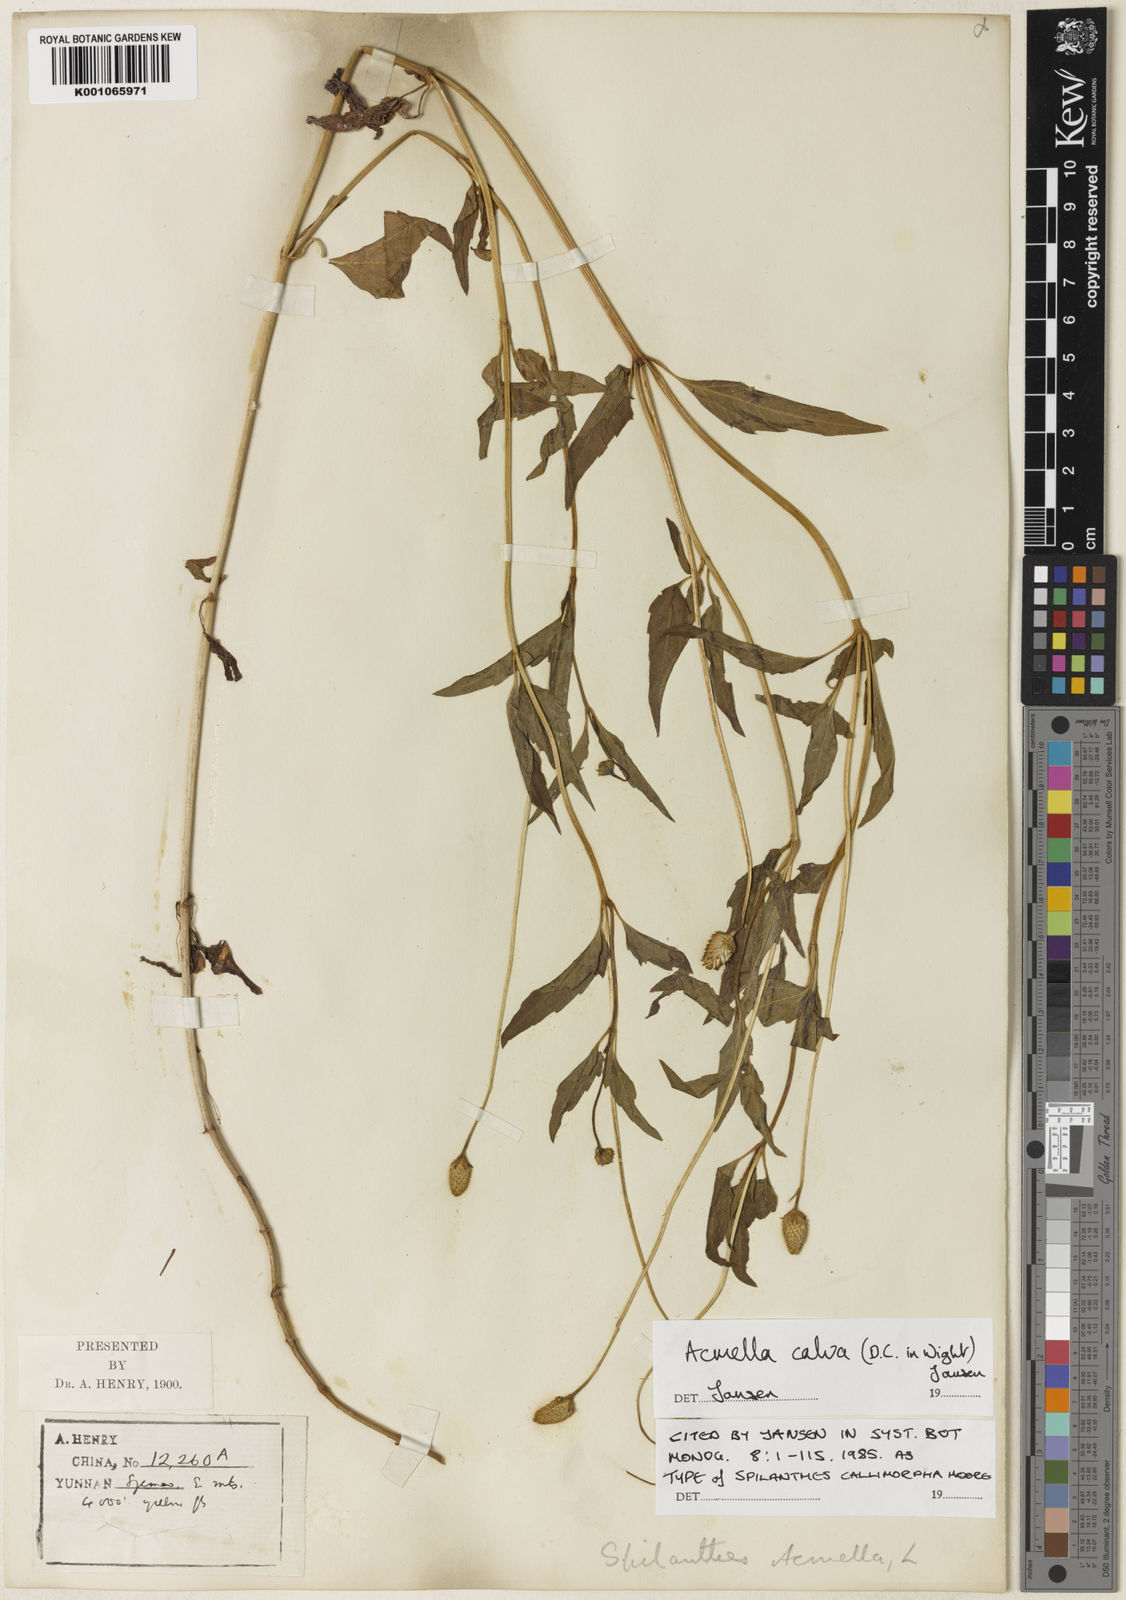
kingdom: Plantae
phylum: Tracheophyta
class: Magnoliopsida
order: Asterales
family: Asteraceae
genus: Acmella
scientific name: Acmella calva
